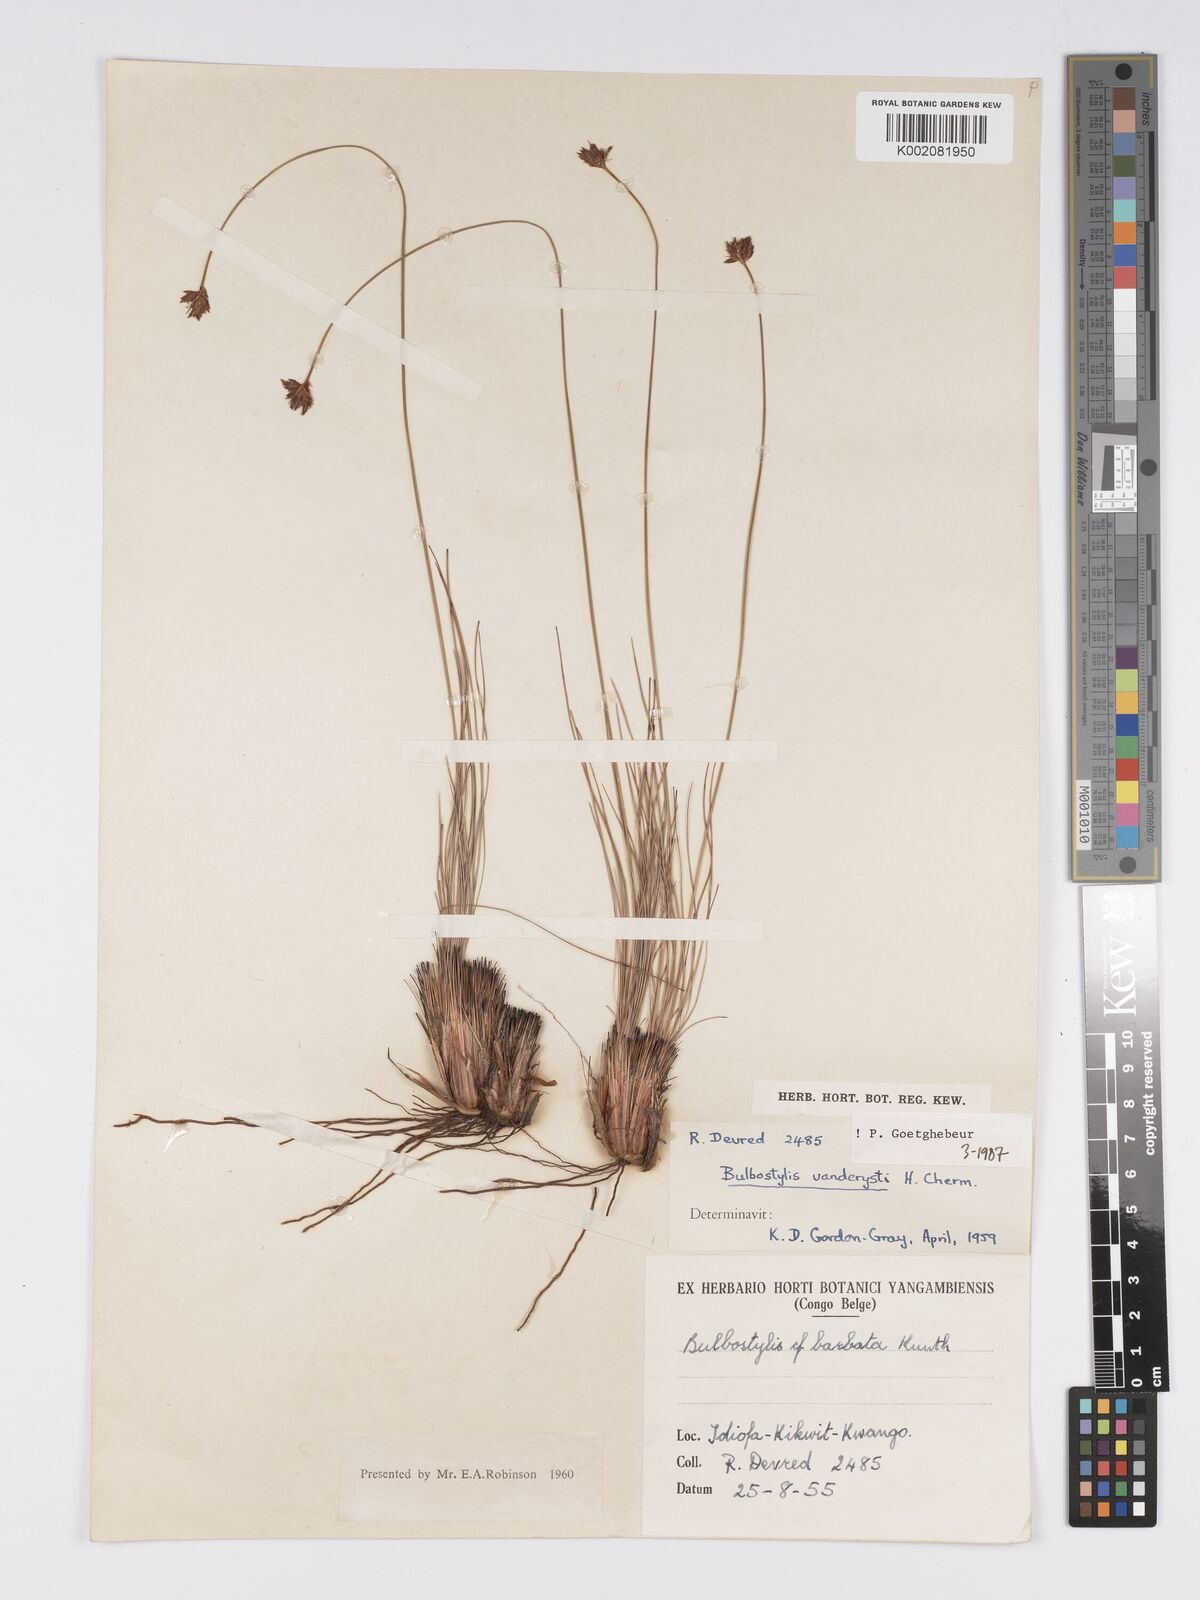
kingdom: Plantae
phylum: Tracheophyta
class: Liliopsida
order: Poales
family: Cyperaceae
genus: Bulbostylis
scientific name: Bulbostylis vanderystii
